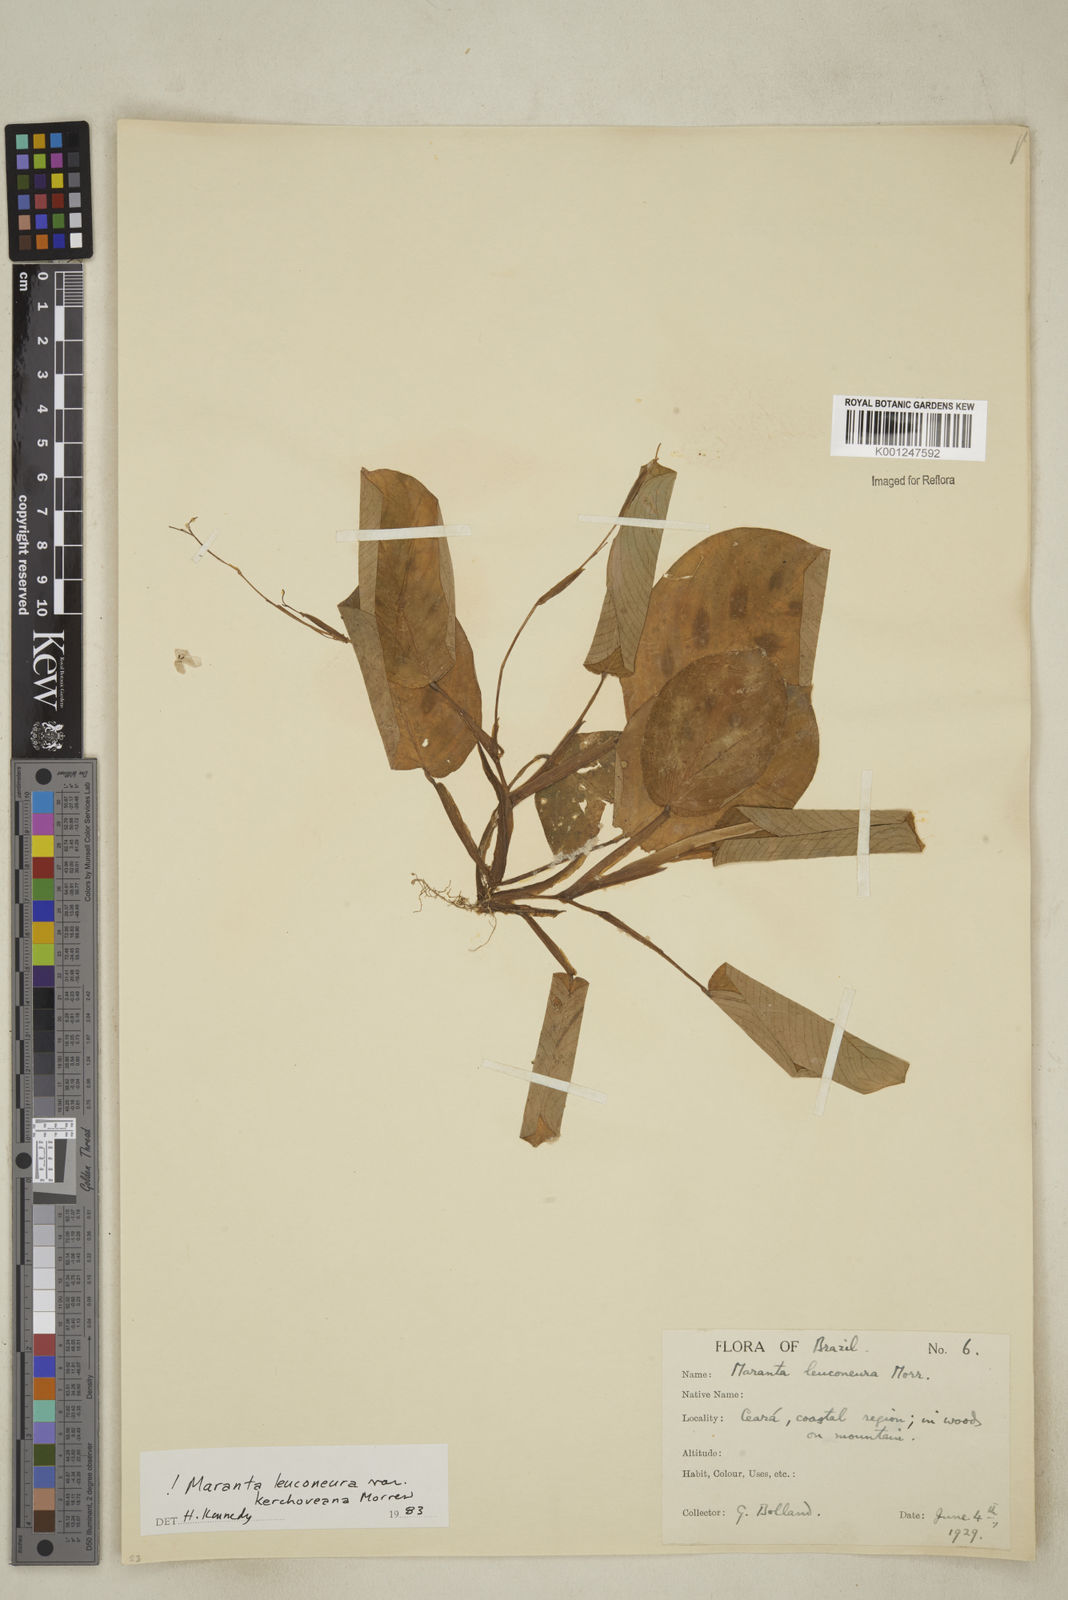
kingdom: Plantae
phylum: Tracheophyta
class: Liliopsida
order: Zingiberales
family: Marantaceae
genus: Maranta
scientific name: Maranta leuconeura
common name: Ten-commandments
